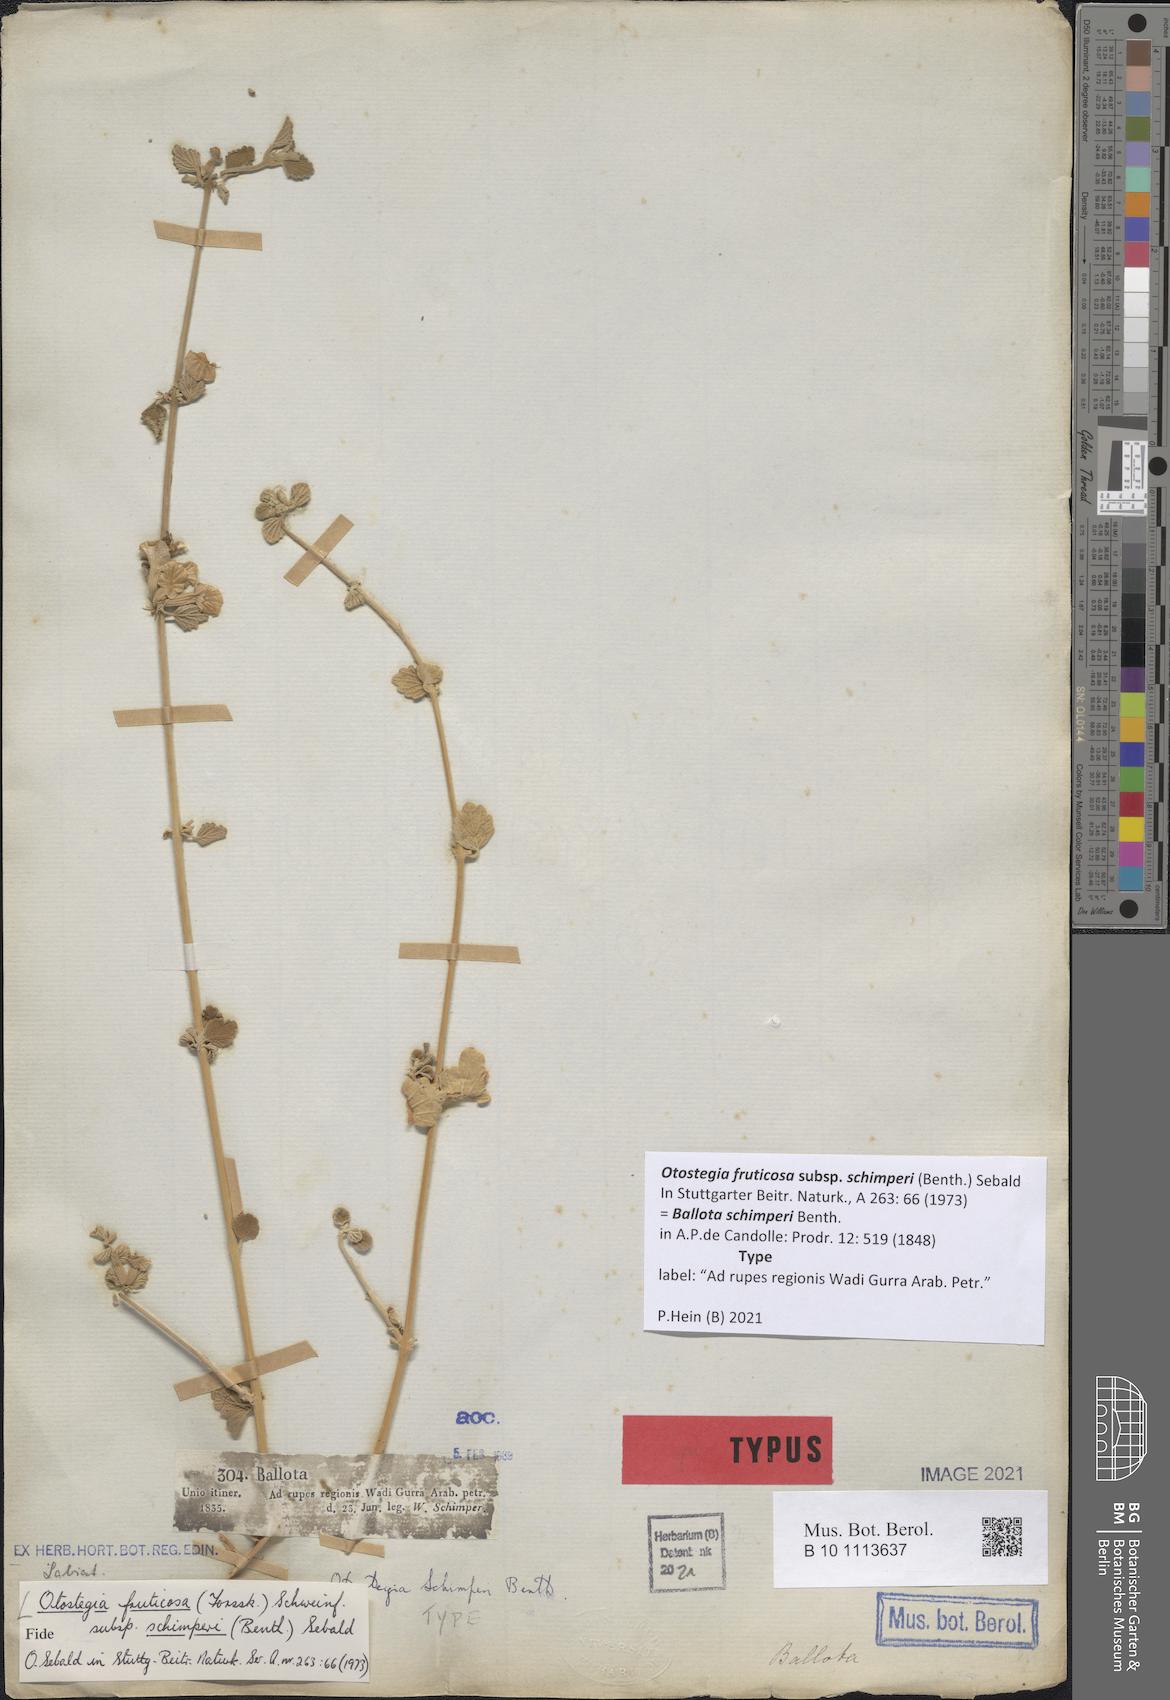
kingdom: Plantae
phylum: Tracheophyta
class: Magnoliopsida
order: Lamiales
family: Lamiaceae
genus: Otostegia
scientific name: Otostegia fruticosa
